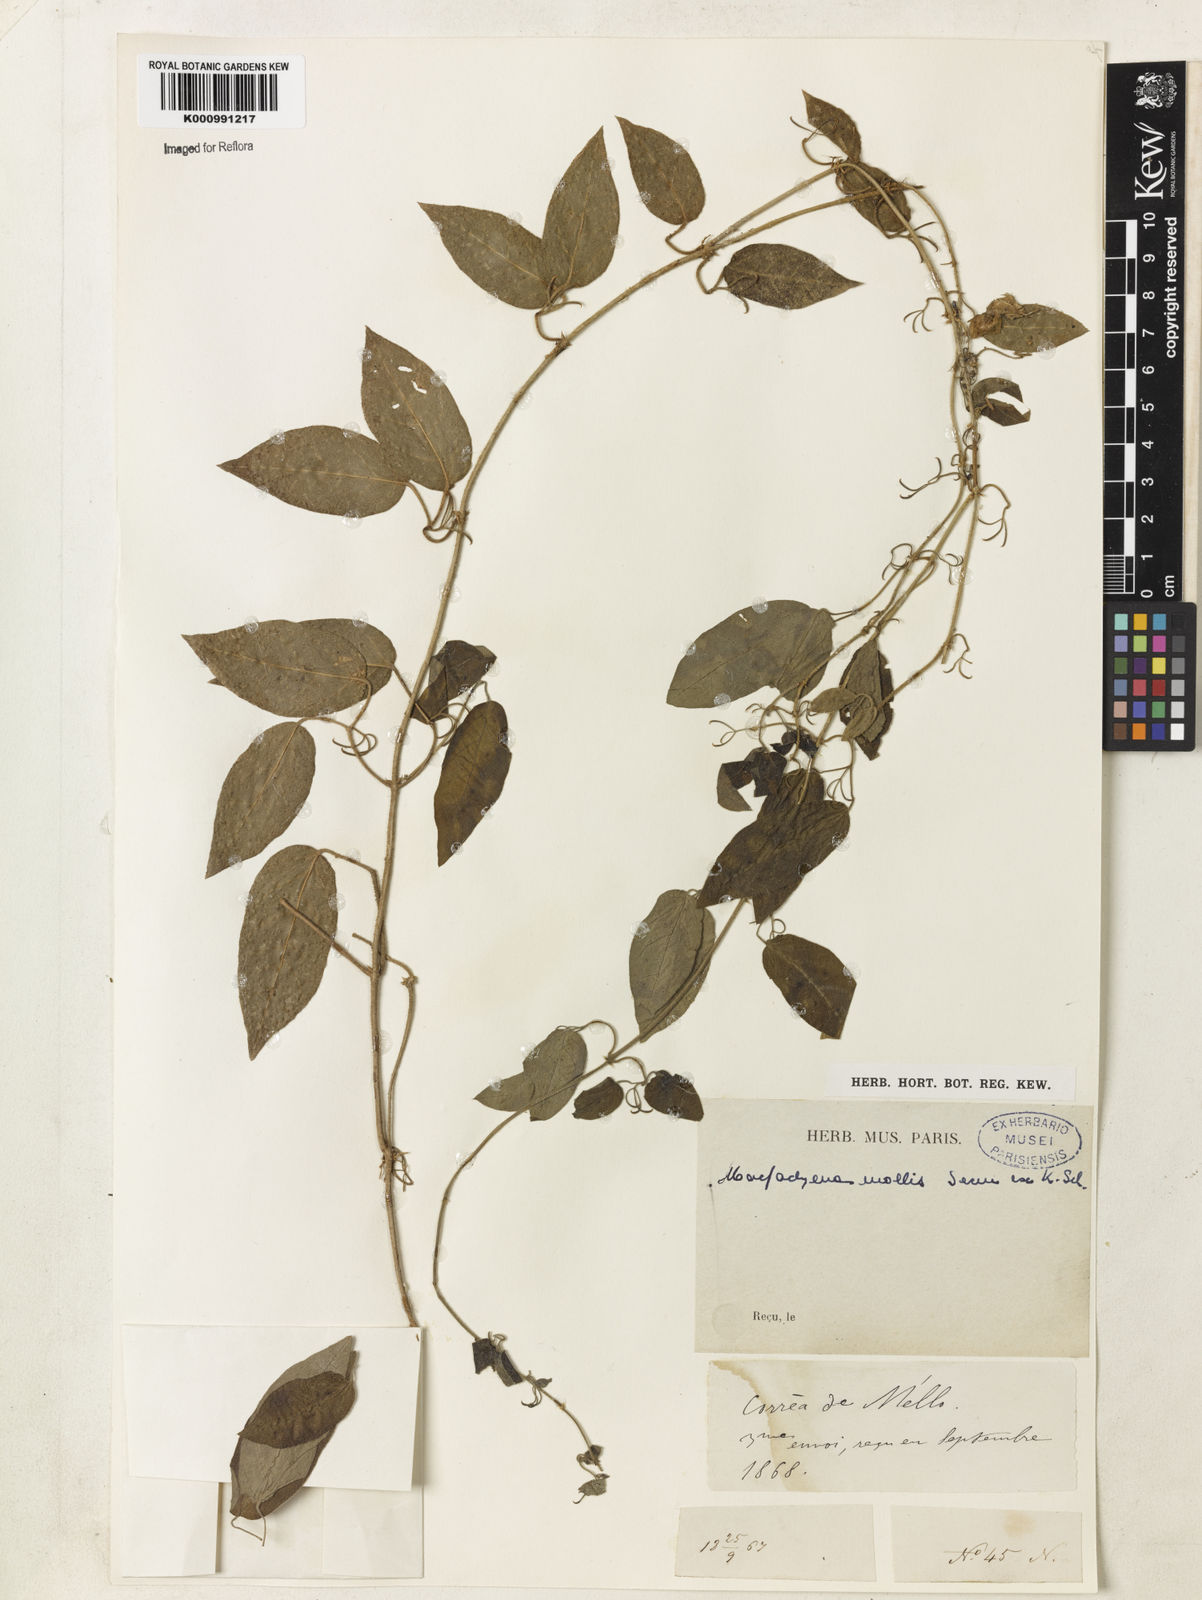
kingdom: Plantae
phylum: Tracheophyta
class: Magnoliopsida
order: Lamiales
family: Bignoniaceae
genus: Dolichandra
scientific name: Dolichandra hispida
